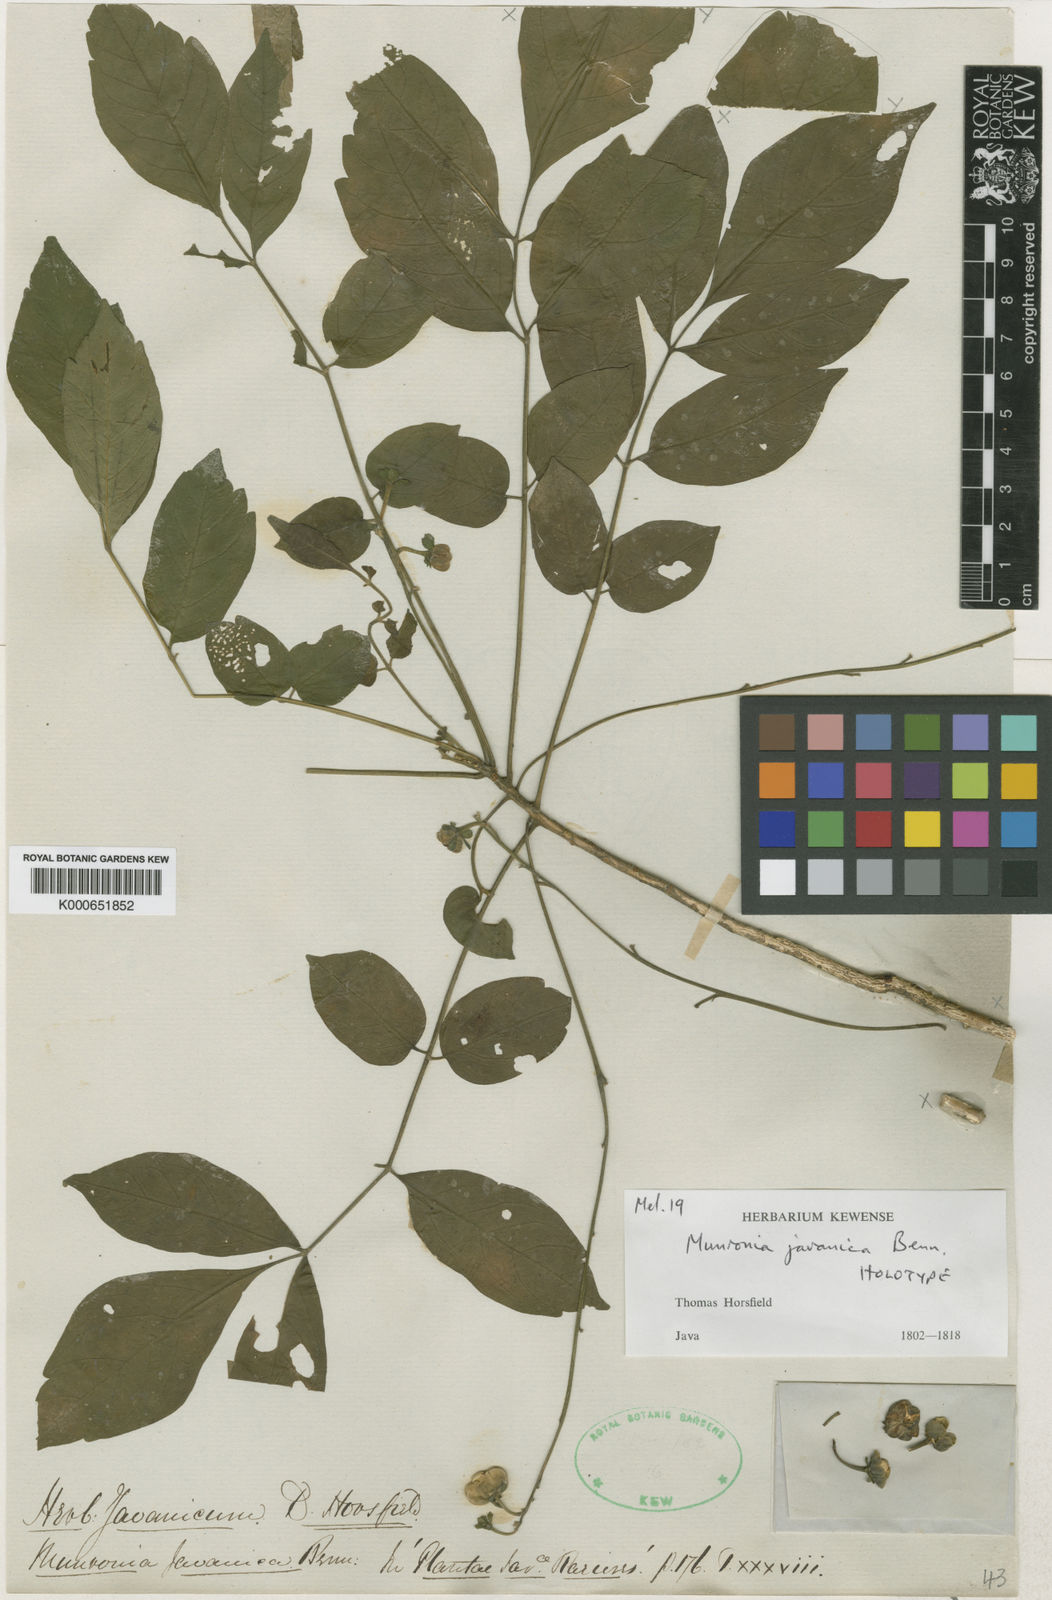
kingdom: Plantae
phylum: Tracheophyta
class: Magnoliopsida
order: Sapindales
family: Meliaceae
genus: Munronia
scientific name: Munronia pinnata
